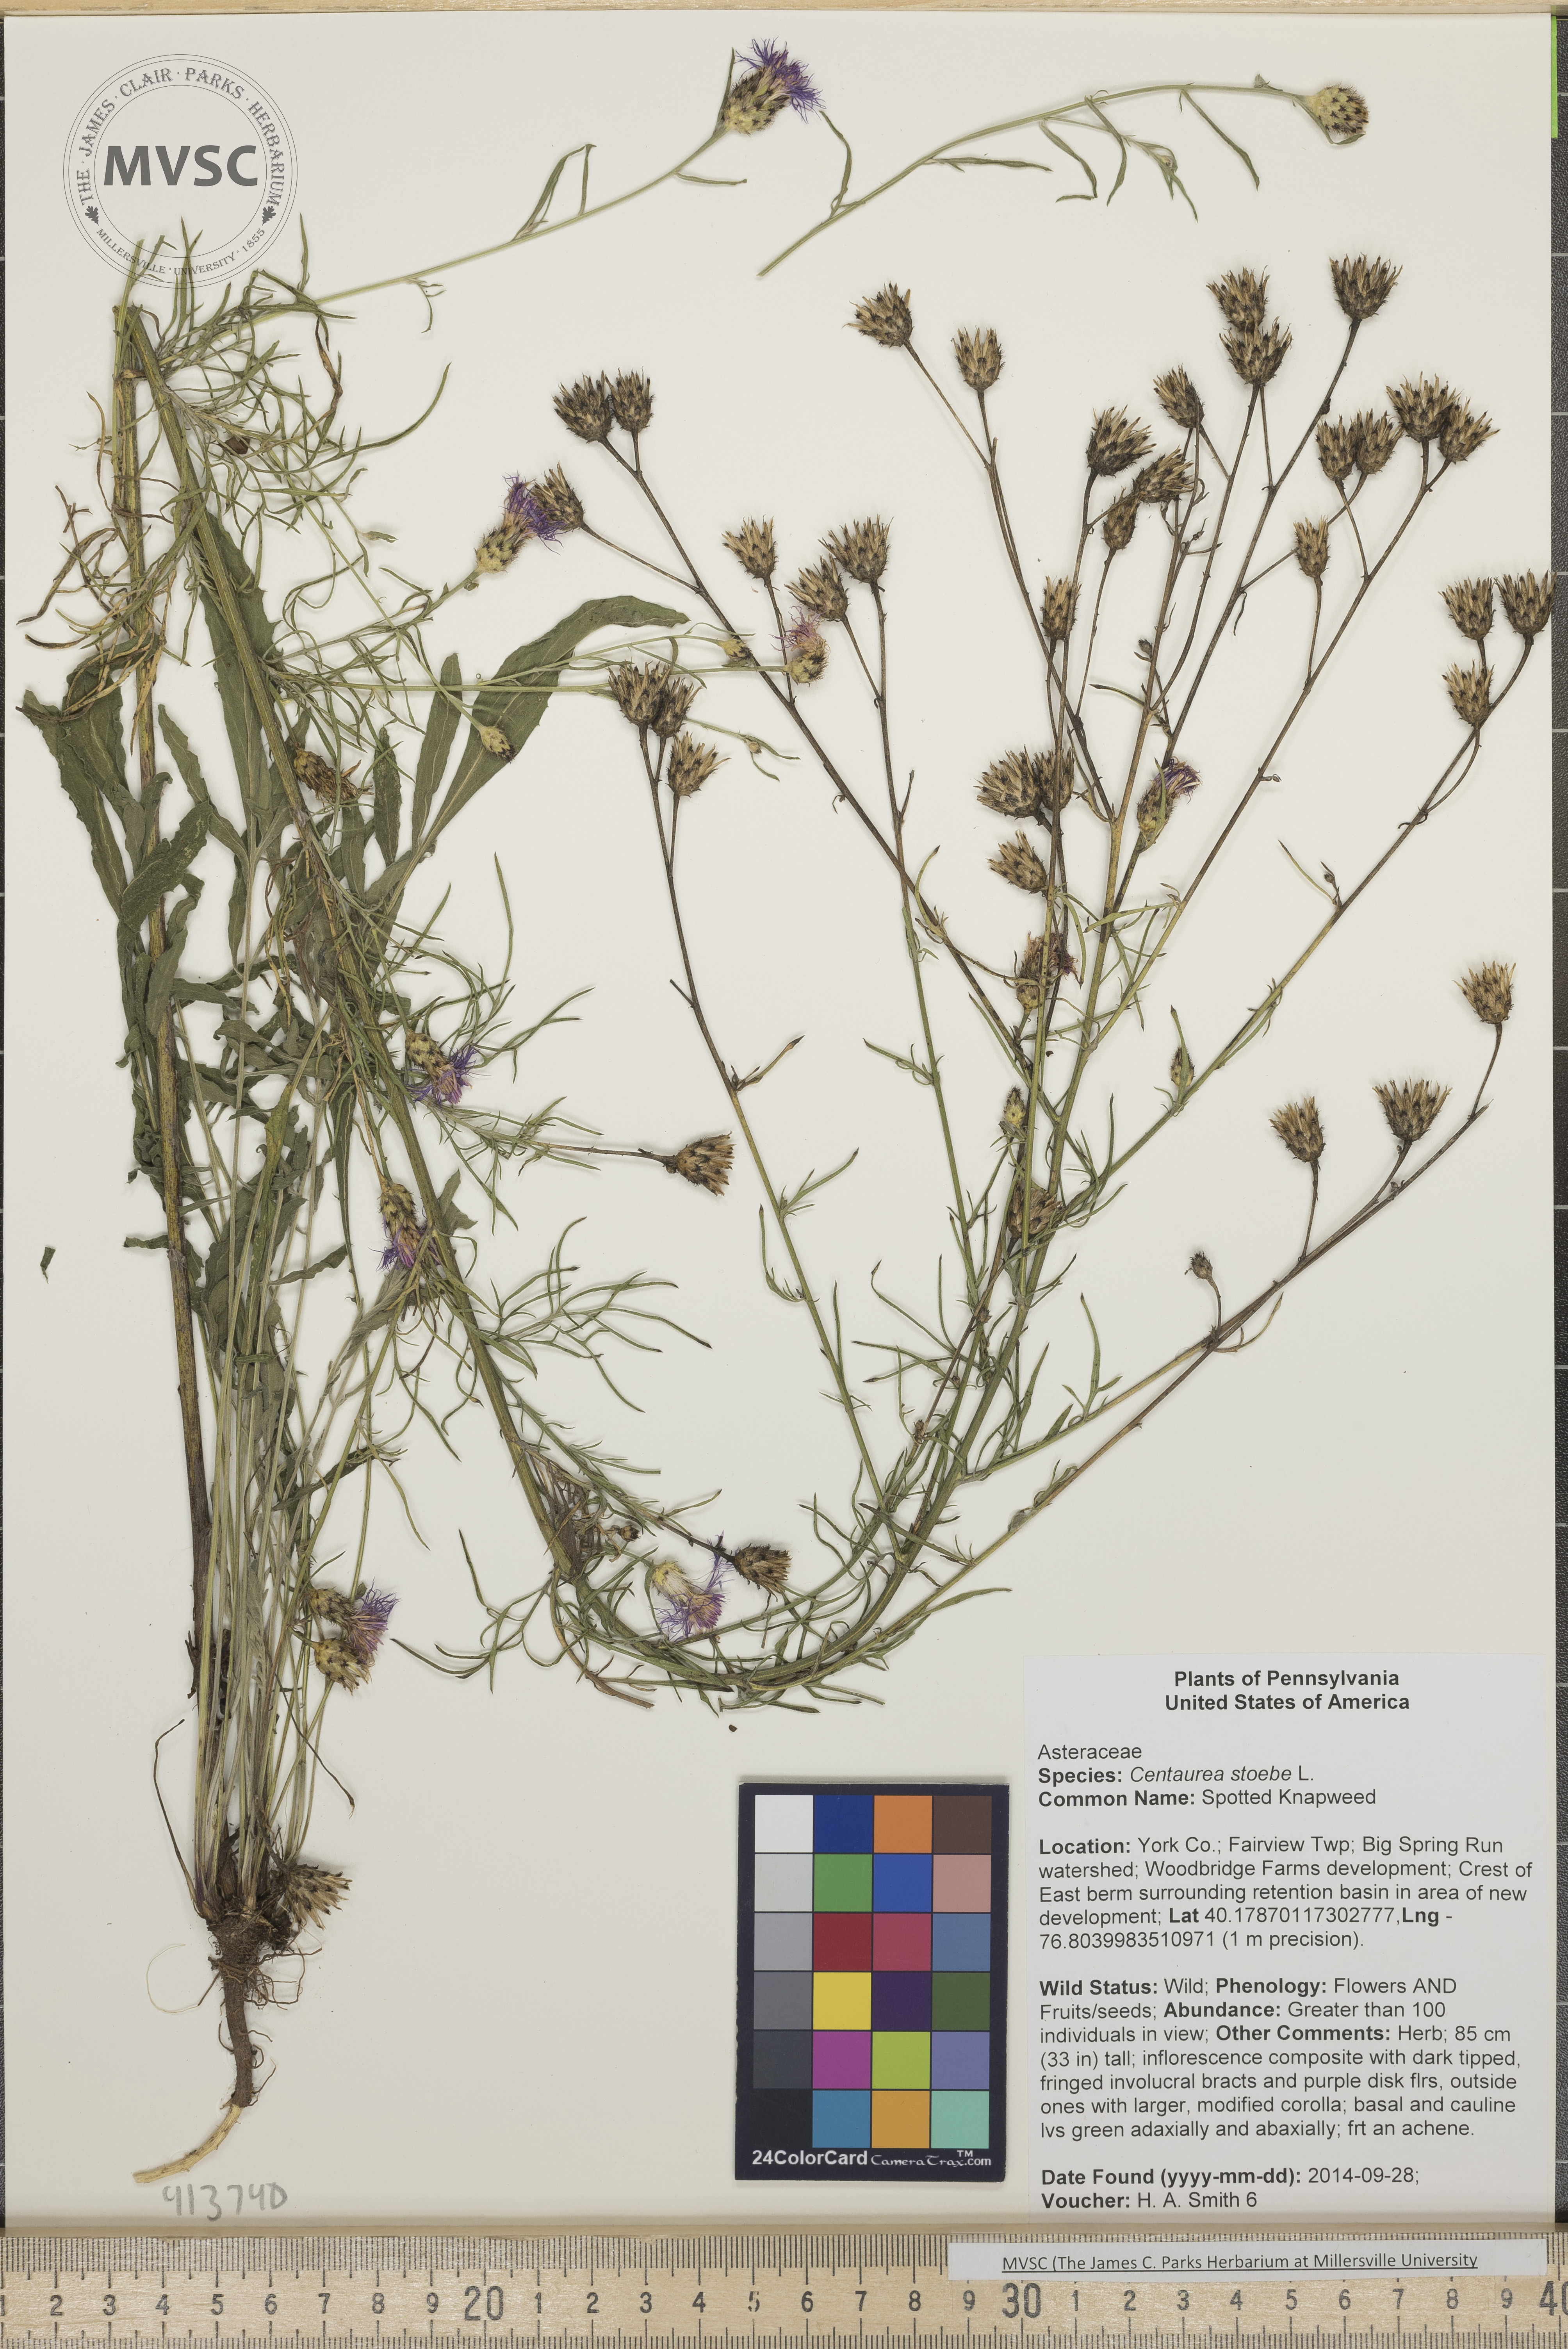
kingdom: Plantae
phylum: Tracheophyta
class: Magnoliopsida
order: Asterales
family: Asteraceae
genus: Centaurea
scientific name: Centaurea stoebe
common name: Spotted Knapweed
